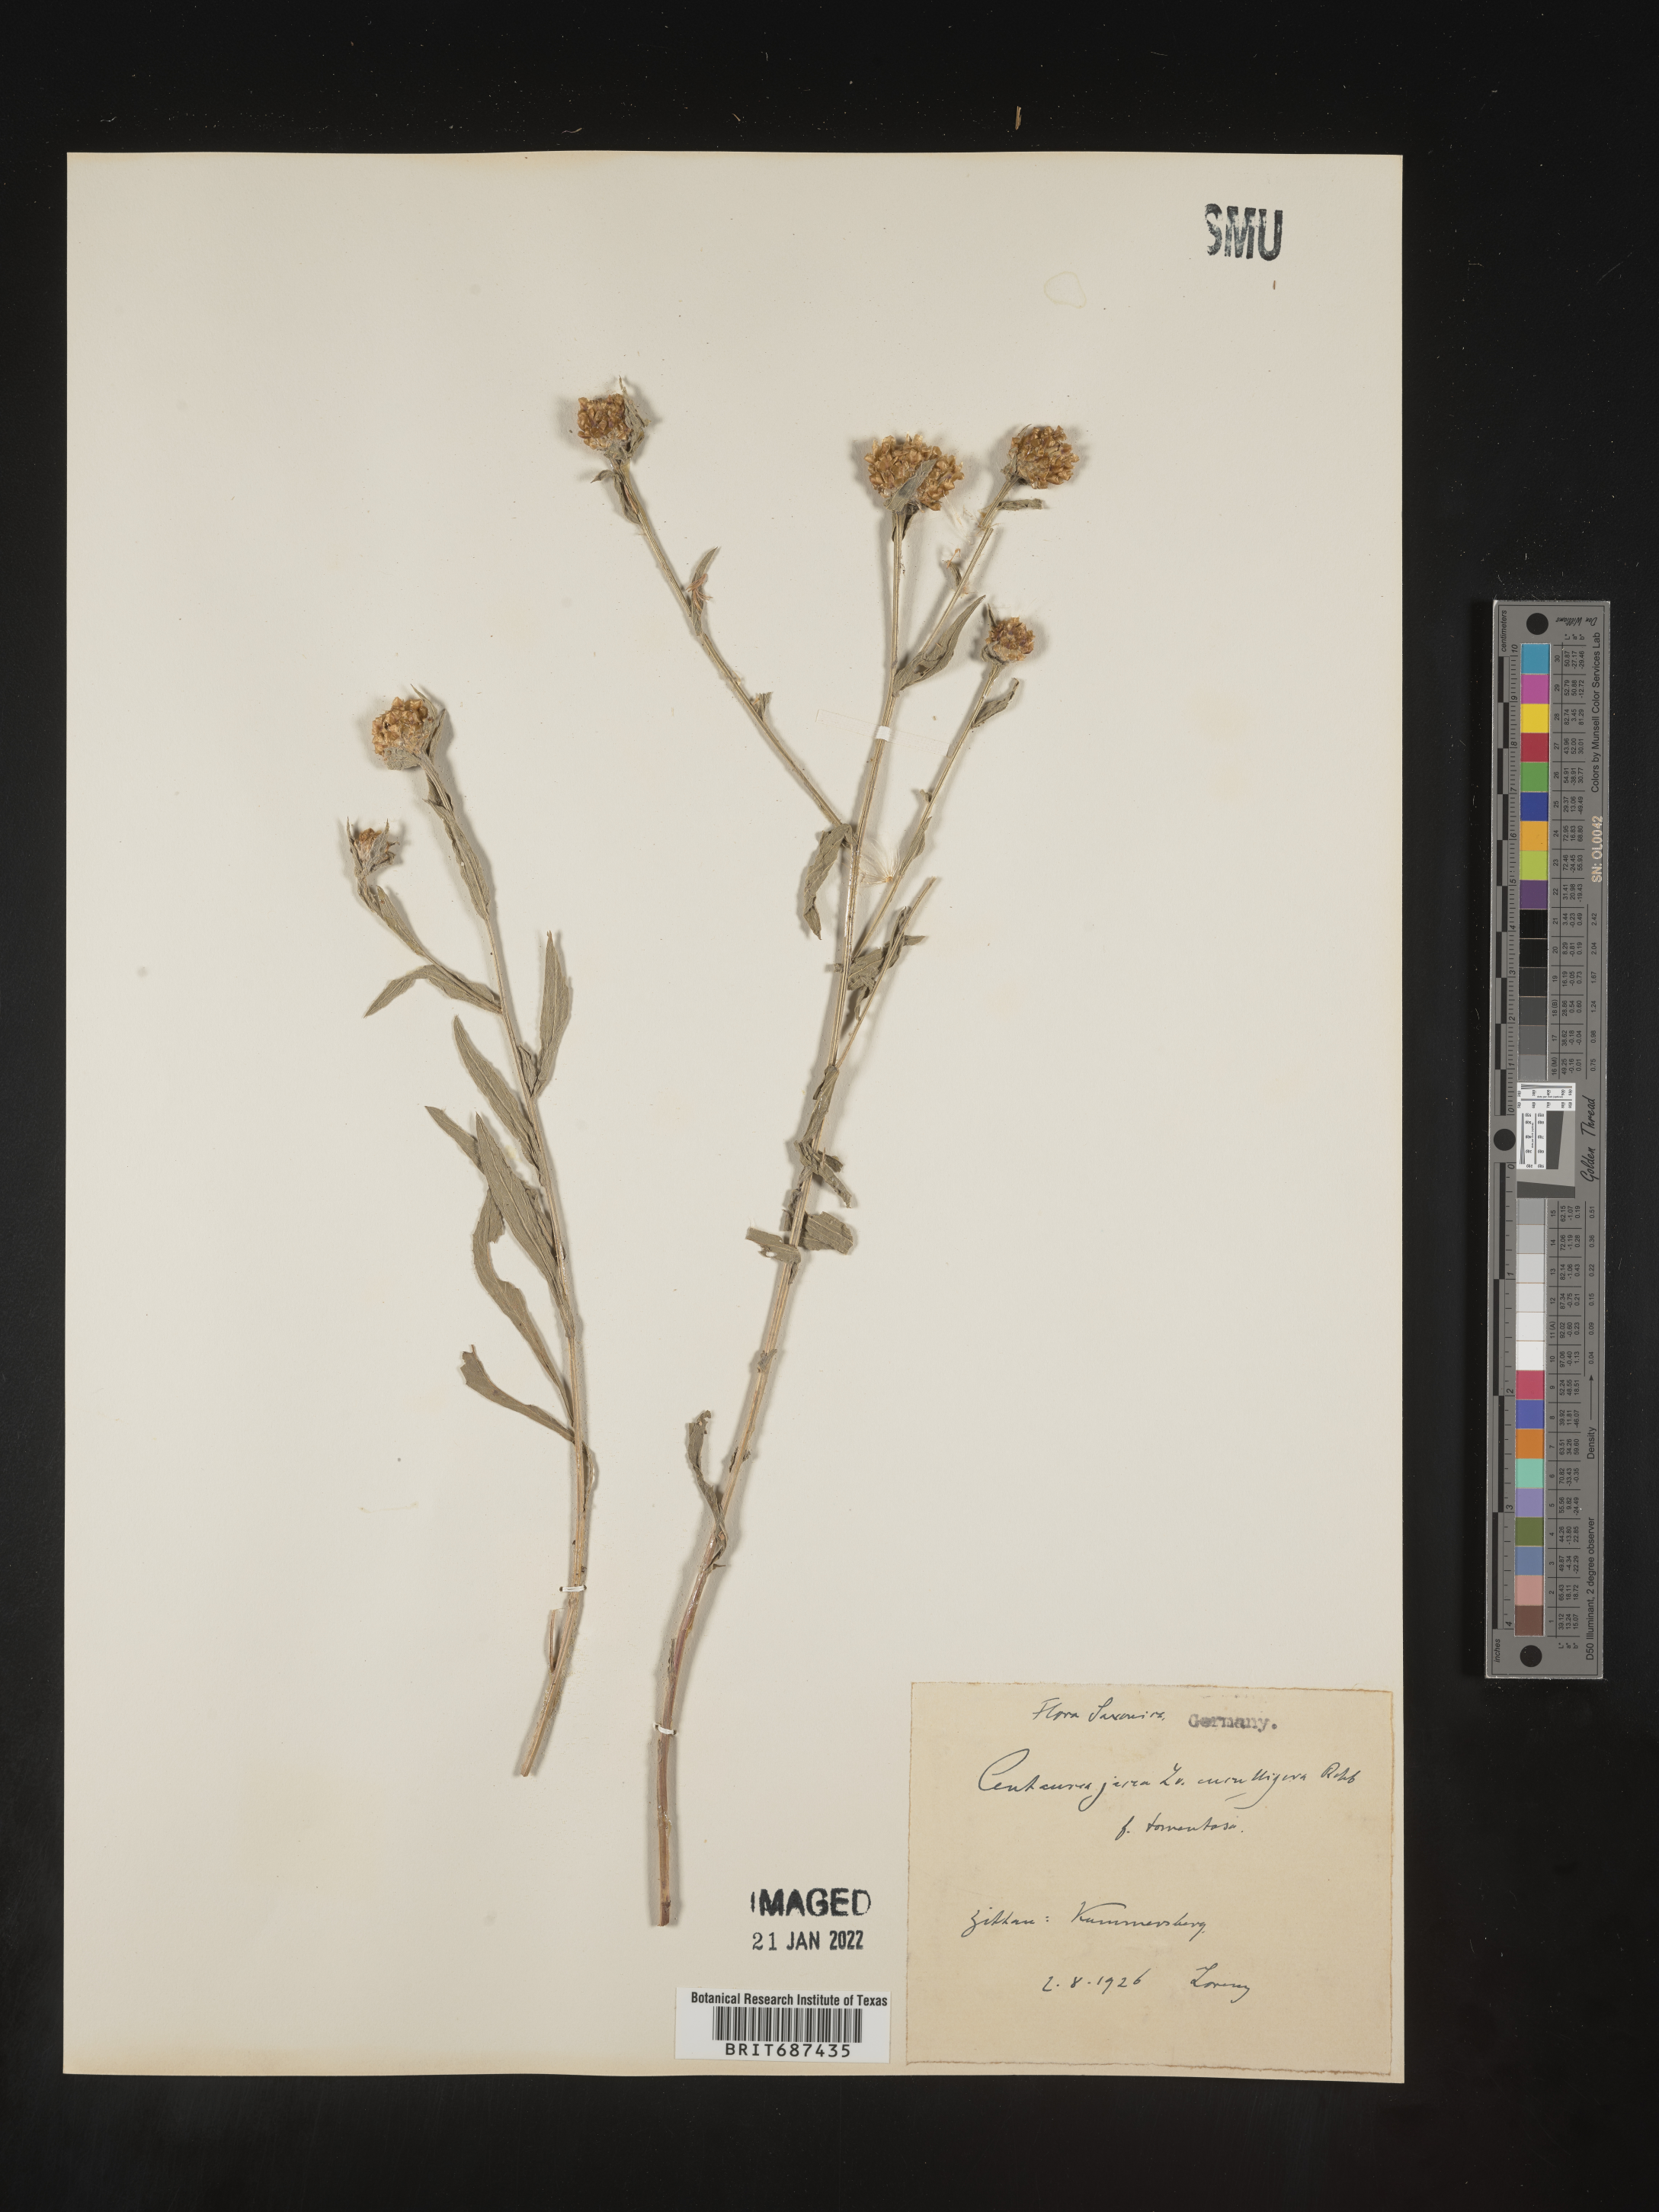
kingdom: Plantae
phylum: Tracheophyta
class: Magnoliopsida
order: Asterales
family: Asteraceae
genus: Centaurea
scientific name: Centaurea jacea
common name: Brown knapweed
